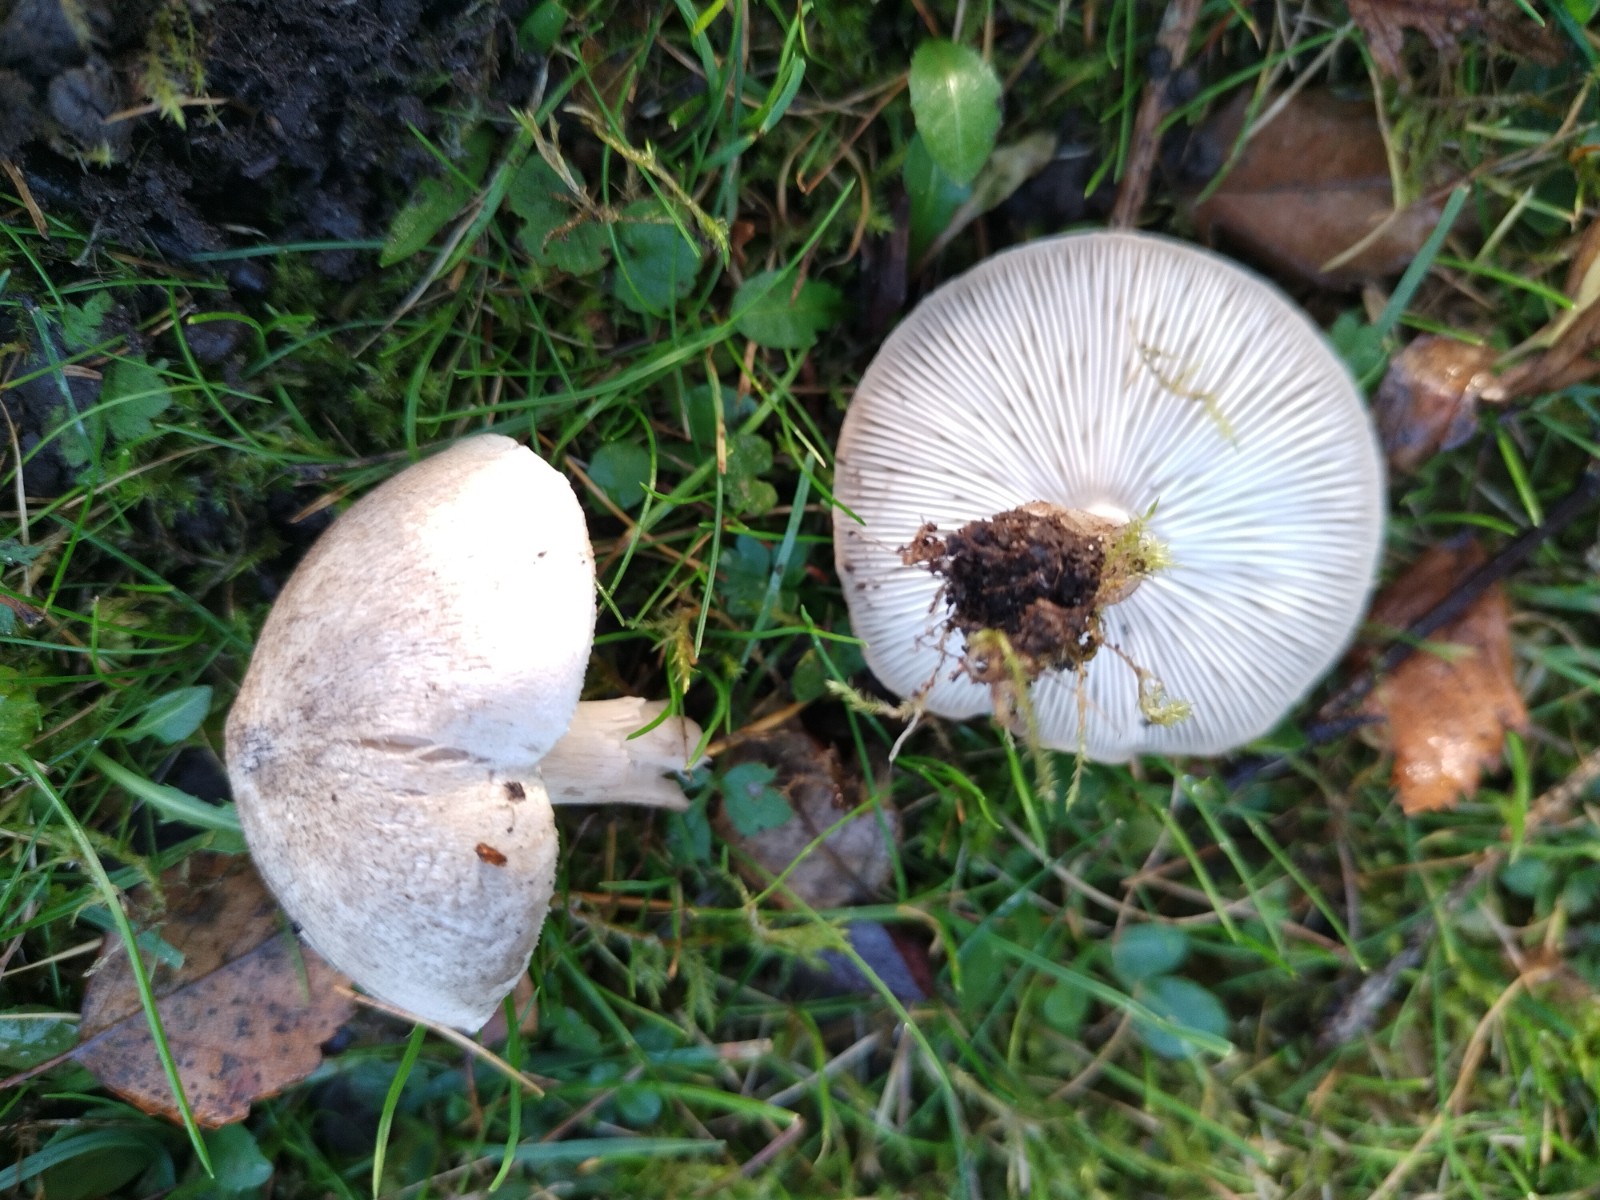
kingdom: Fungi
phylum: Basidiomycota
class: Agaricomycetes
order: Agaricales
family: Tricholomataceae
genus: Tricholoma
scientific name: Tricholoma argyraceum
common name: slør-ridderhat
